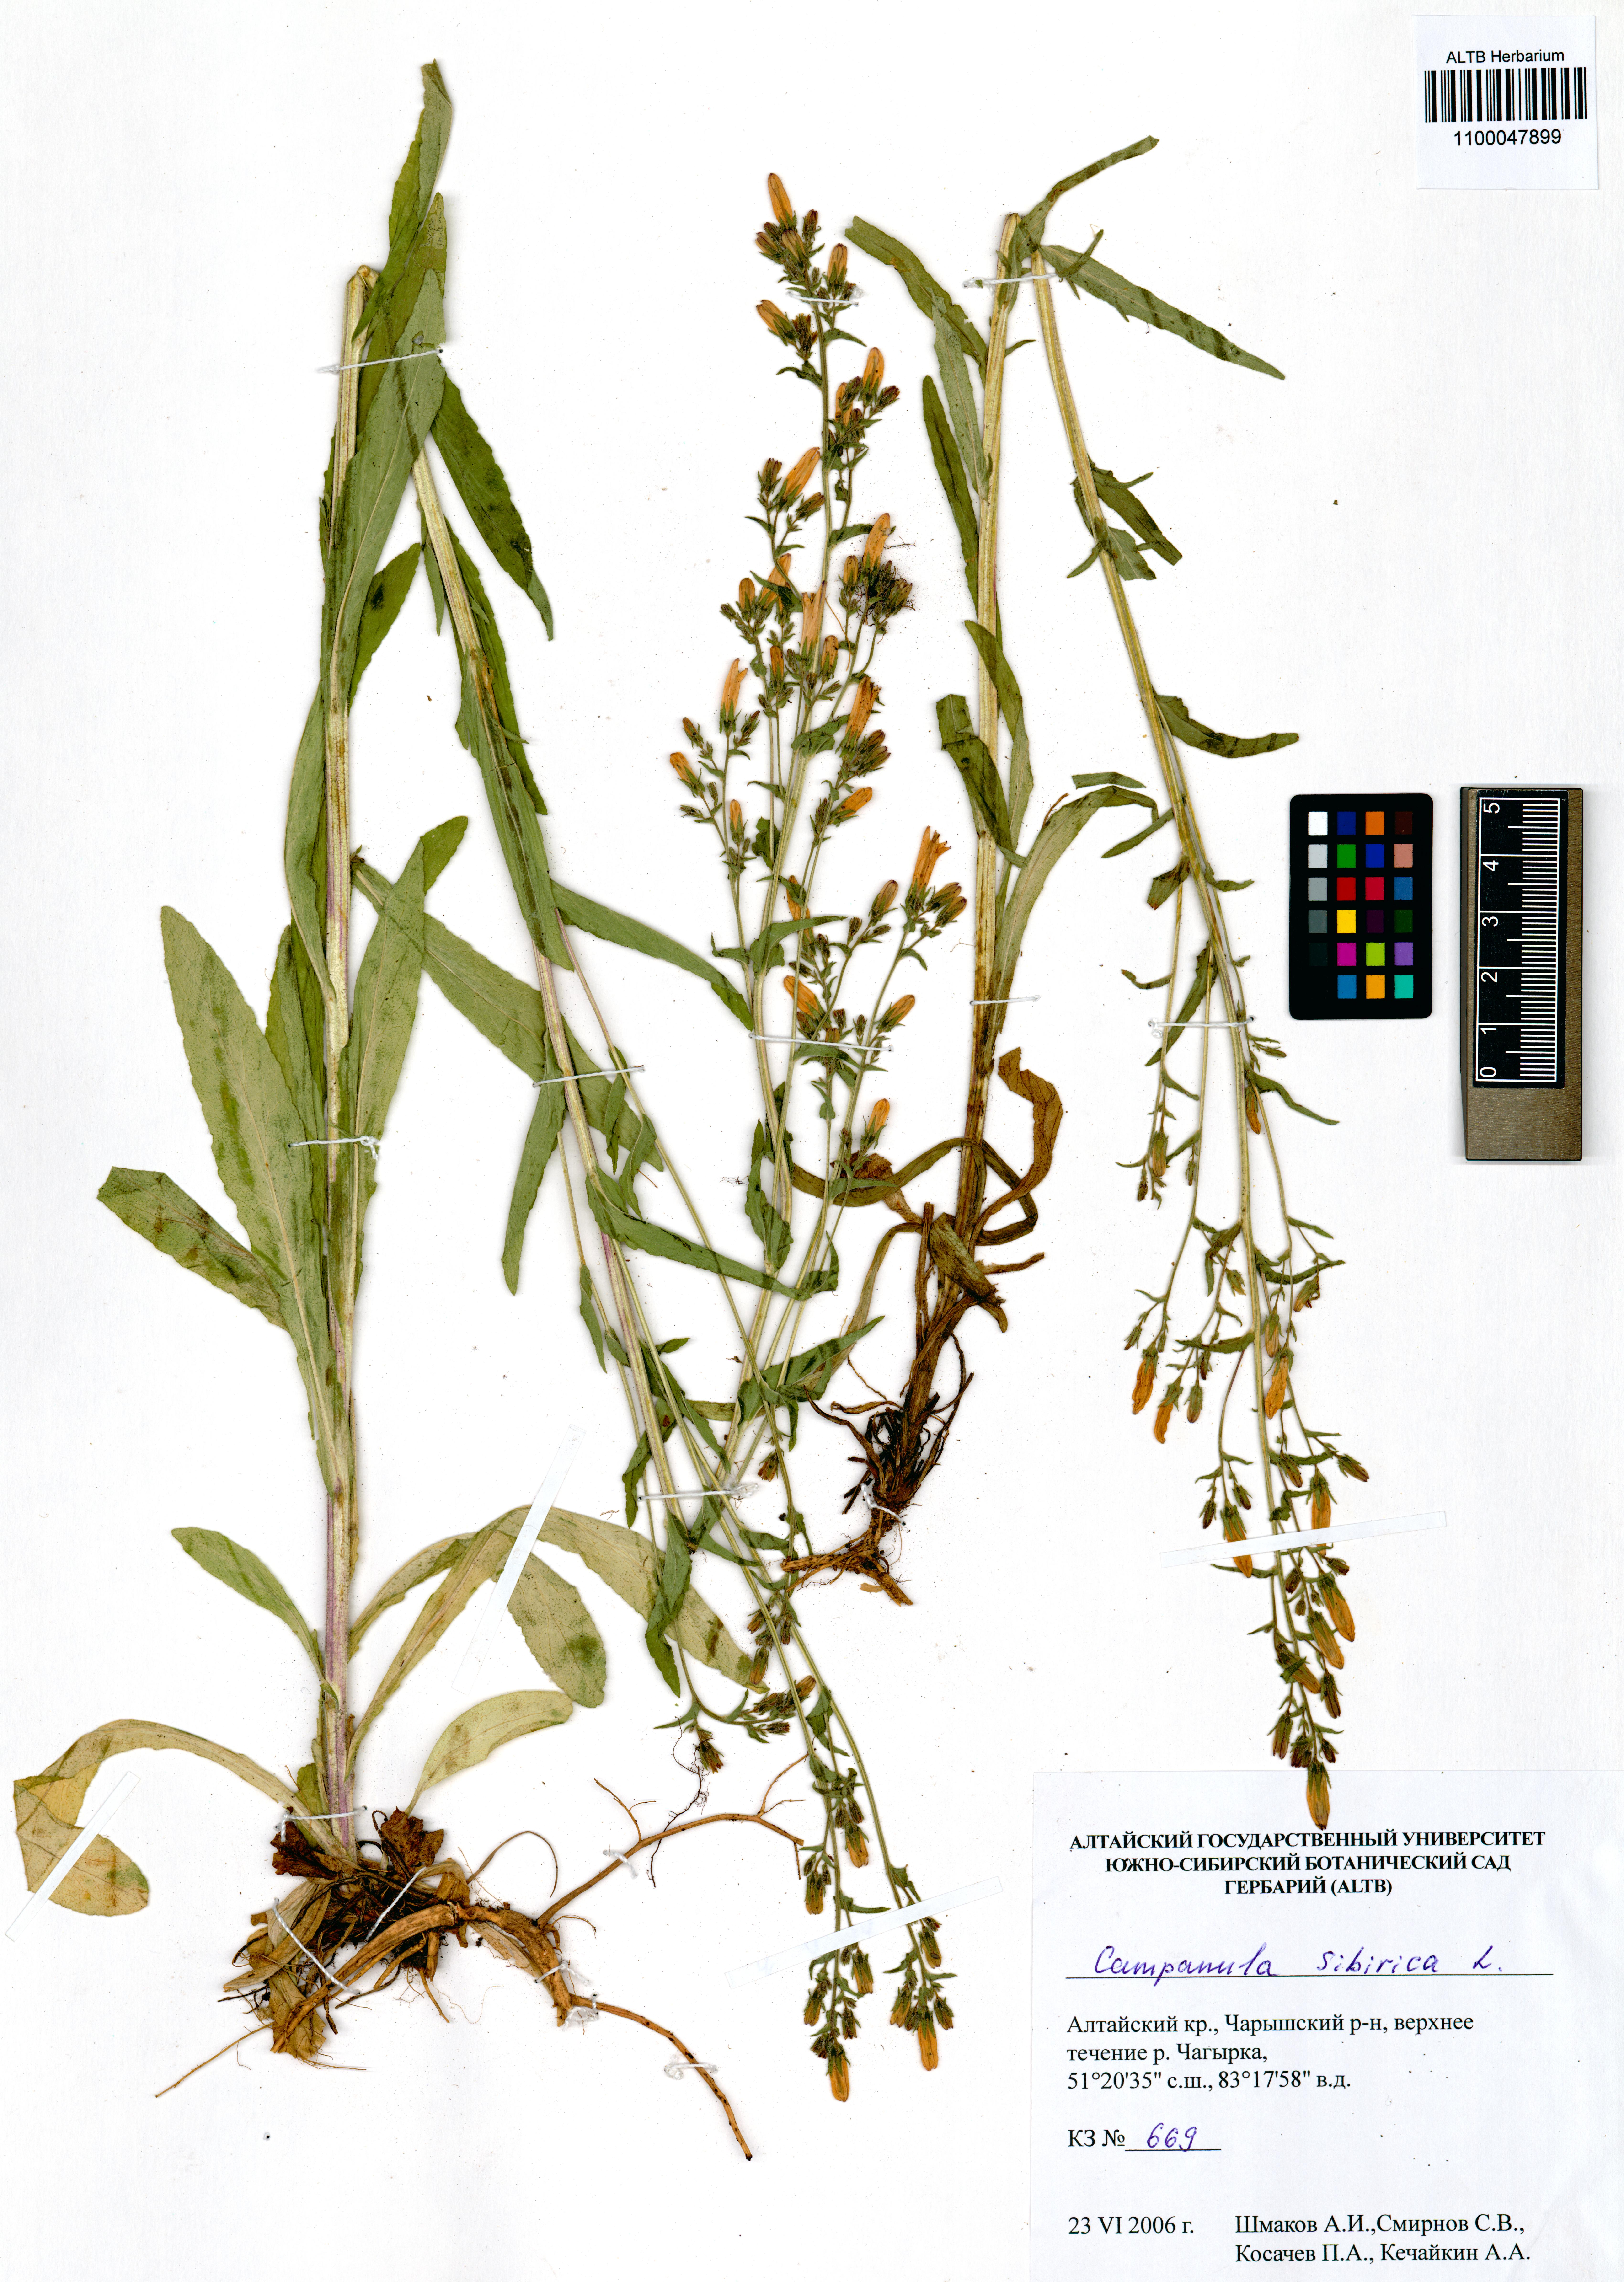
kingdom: Plantae
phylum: Tracheophyta
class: Magnoliopsida
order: Asterales
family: Campanulaceae
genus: Campanula
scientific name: Campanula sibirica
